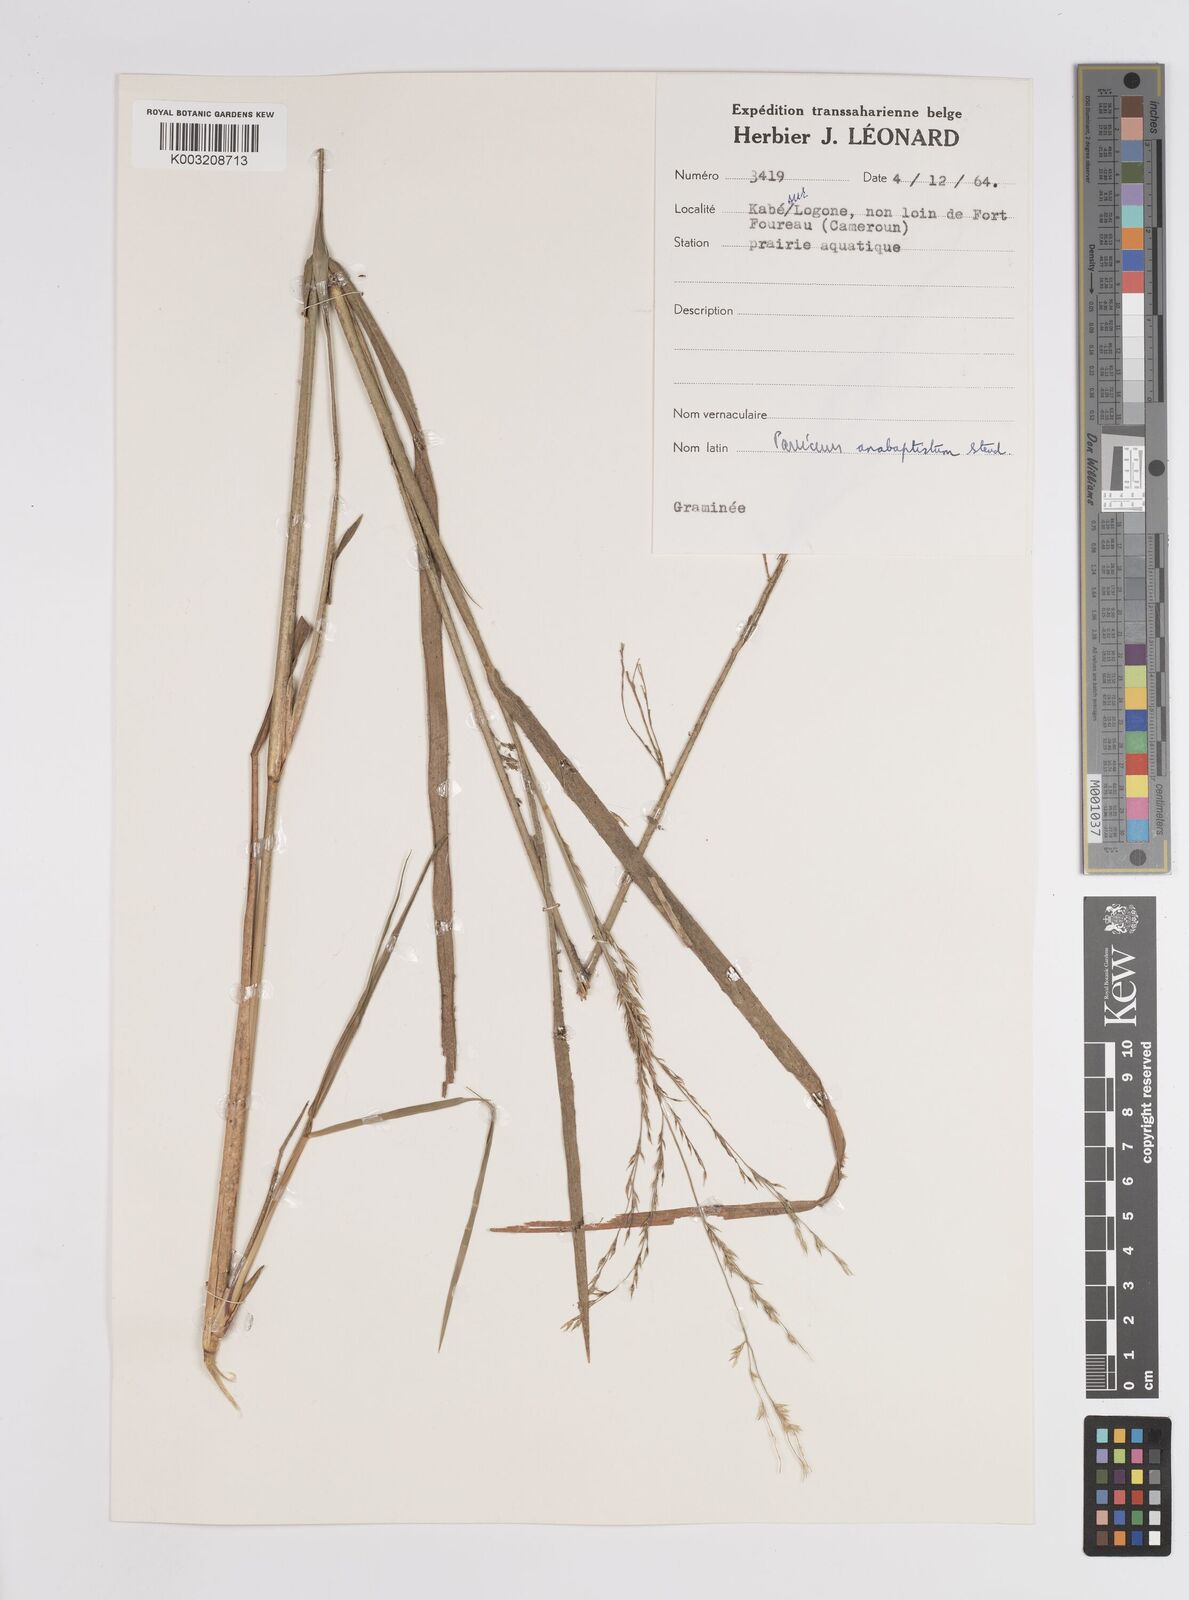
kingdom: Plantae
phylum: Tracheophyta
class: Liliopsida
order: Poales
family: Poaceae
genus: Panicum
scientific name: Panicum anabaptistum
